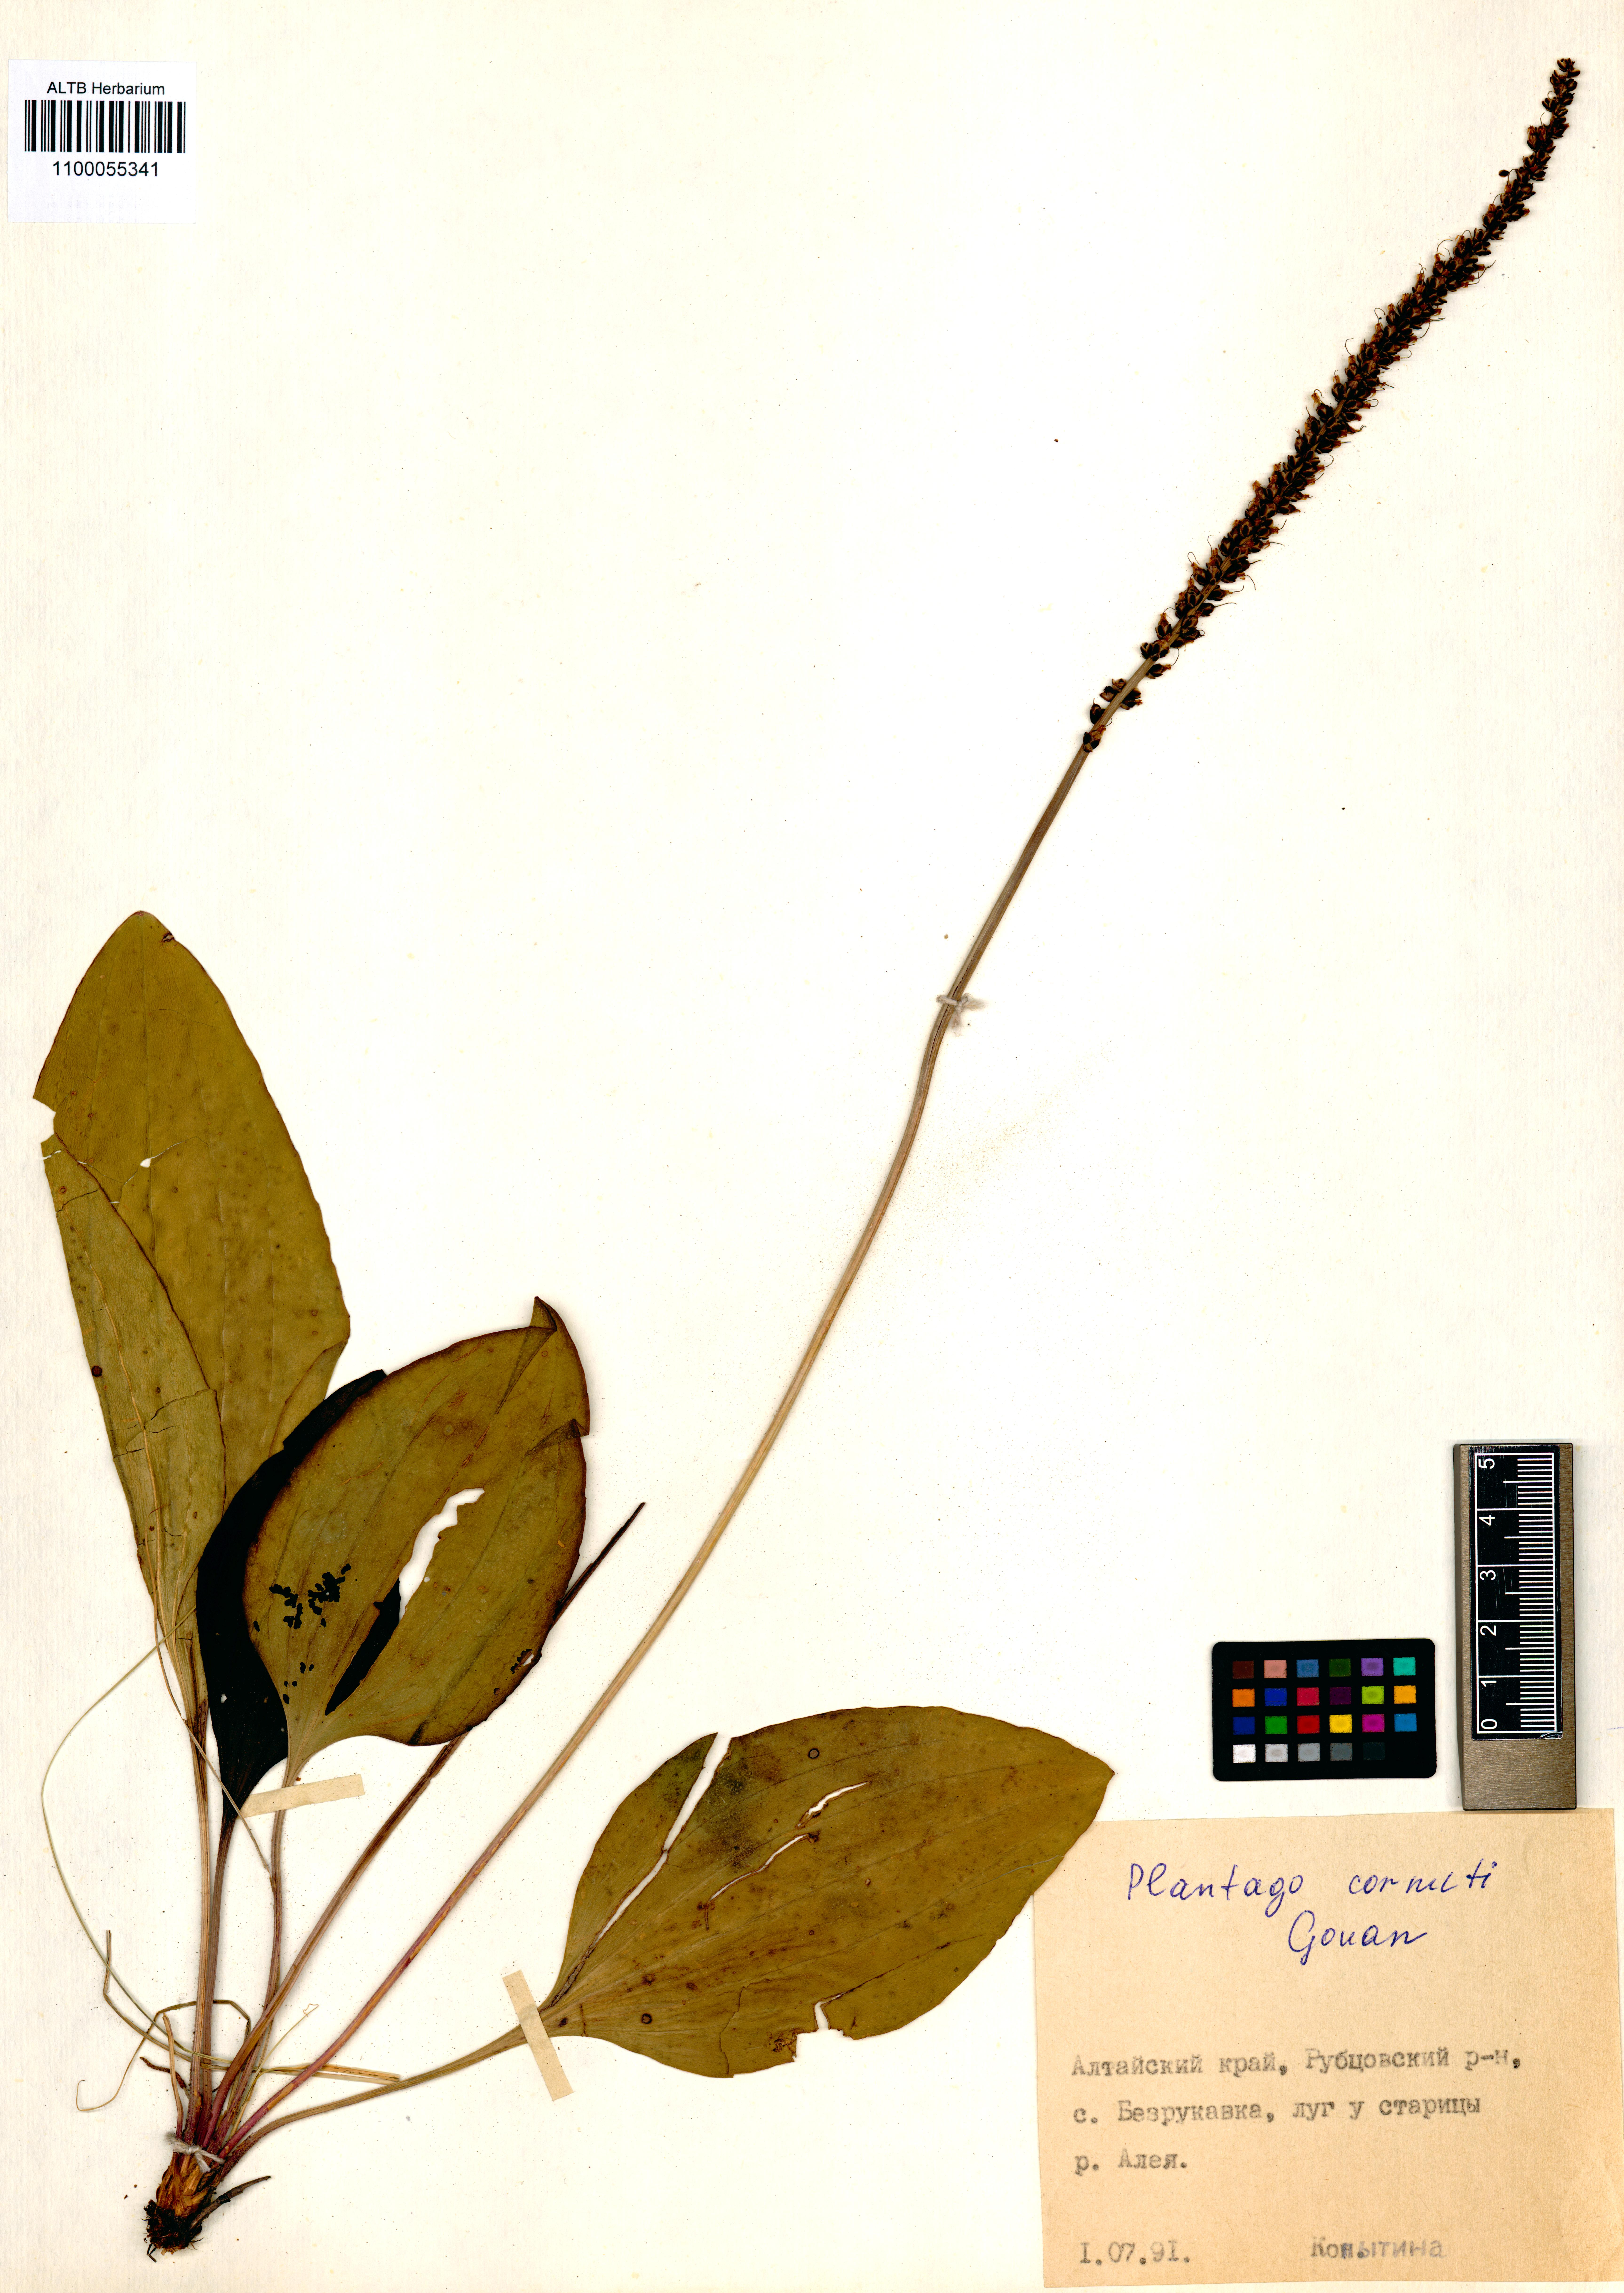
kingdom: Plantae
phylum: Tracheophyta
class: Magnoliopsida
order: Lamiales
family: Plantaginaceae
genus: Plantago
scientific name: Plantago cornuti
